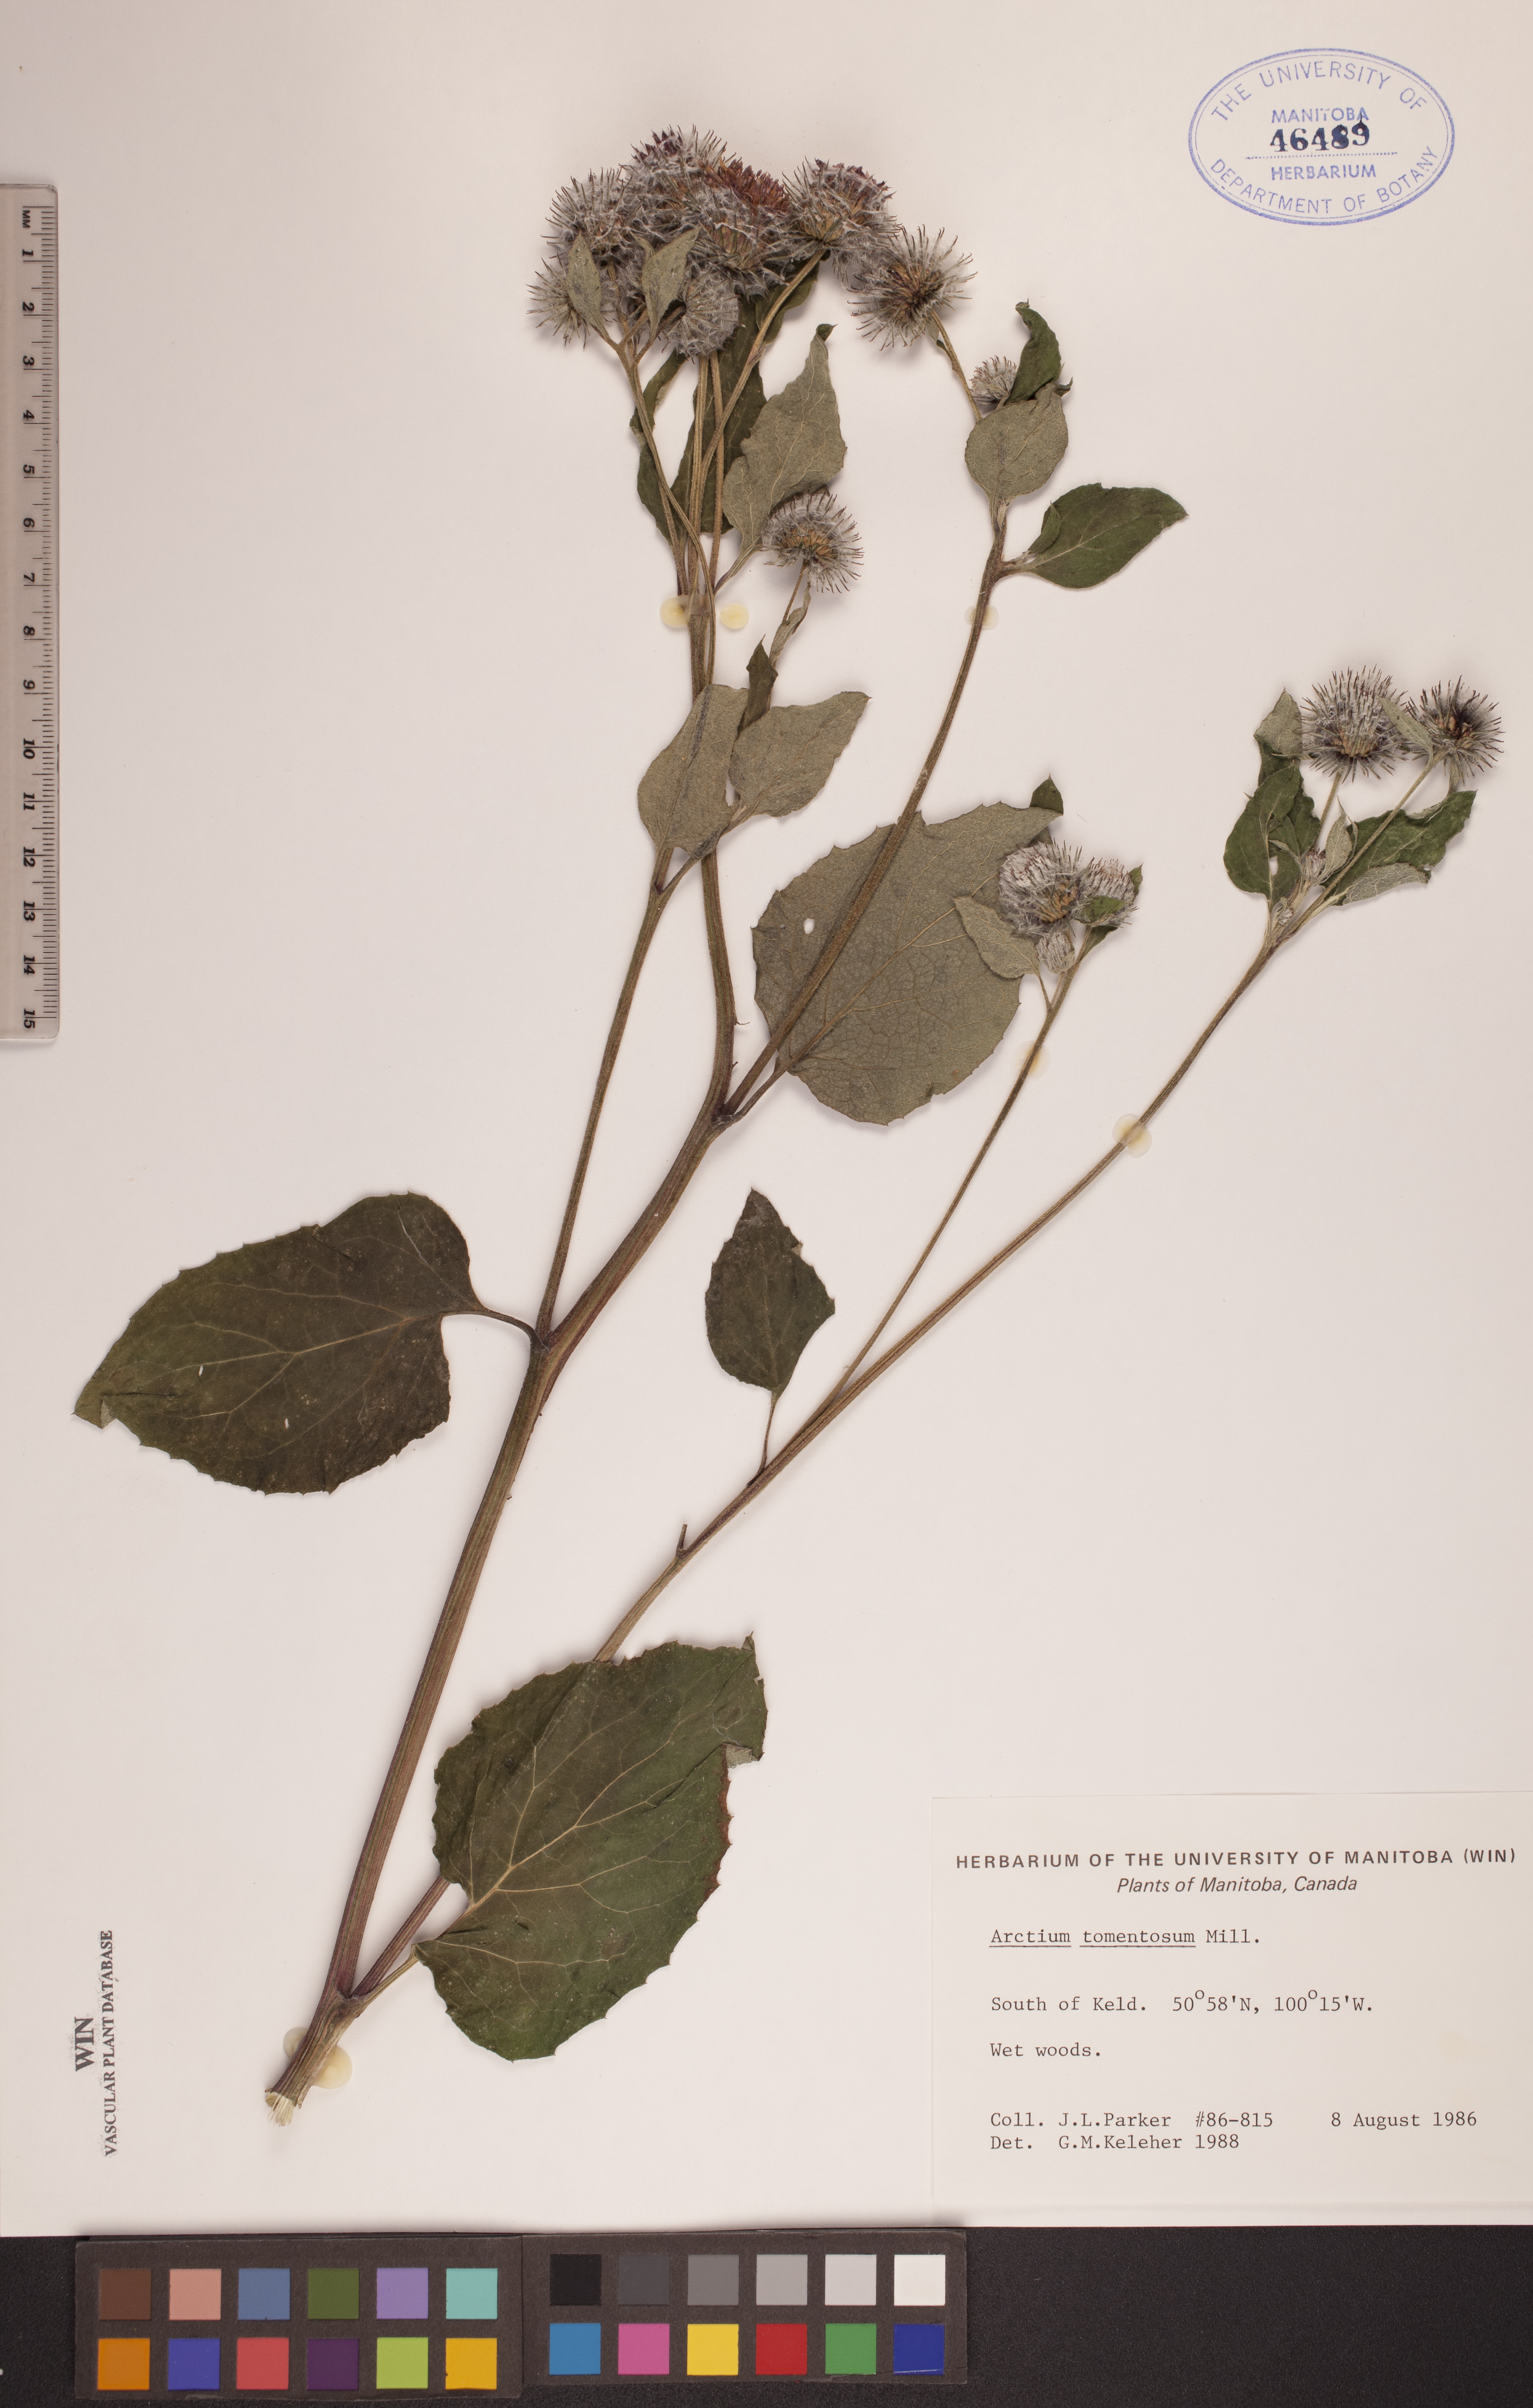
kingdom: Plantae
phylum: Tracheophyta
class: Magnoliopsida
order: Asterales
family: Asteraceae
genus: Arctium
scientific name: Arctium tomentosum
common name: Woolly burdock
